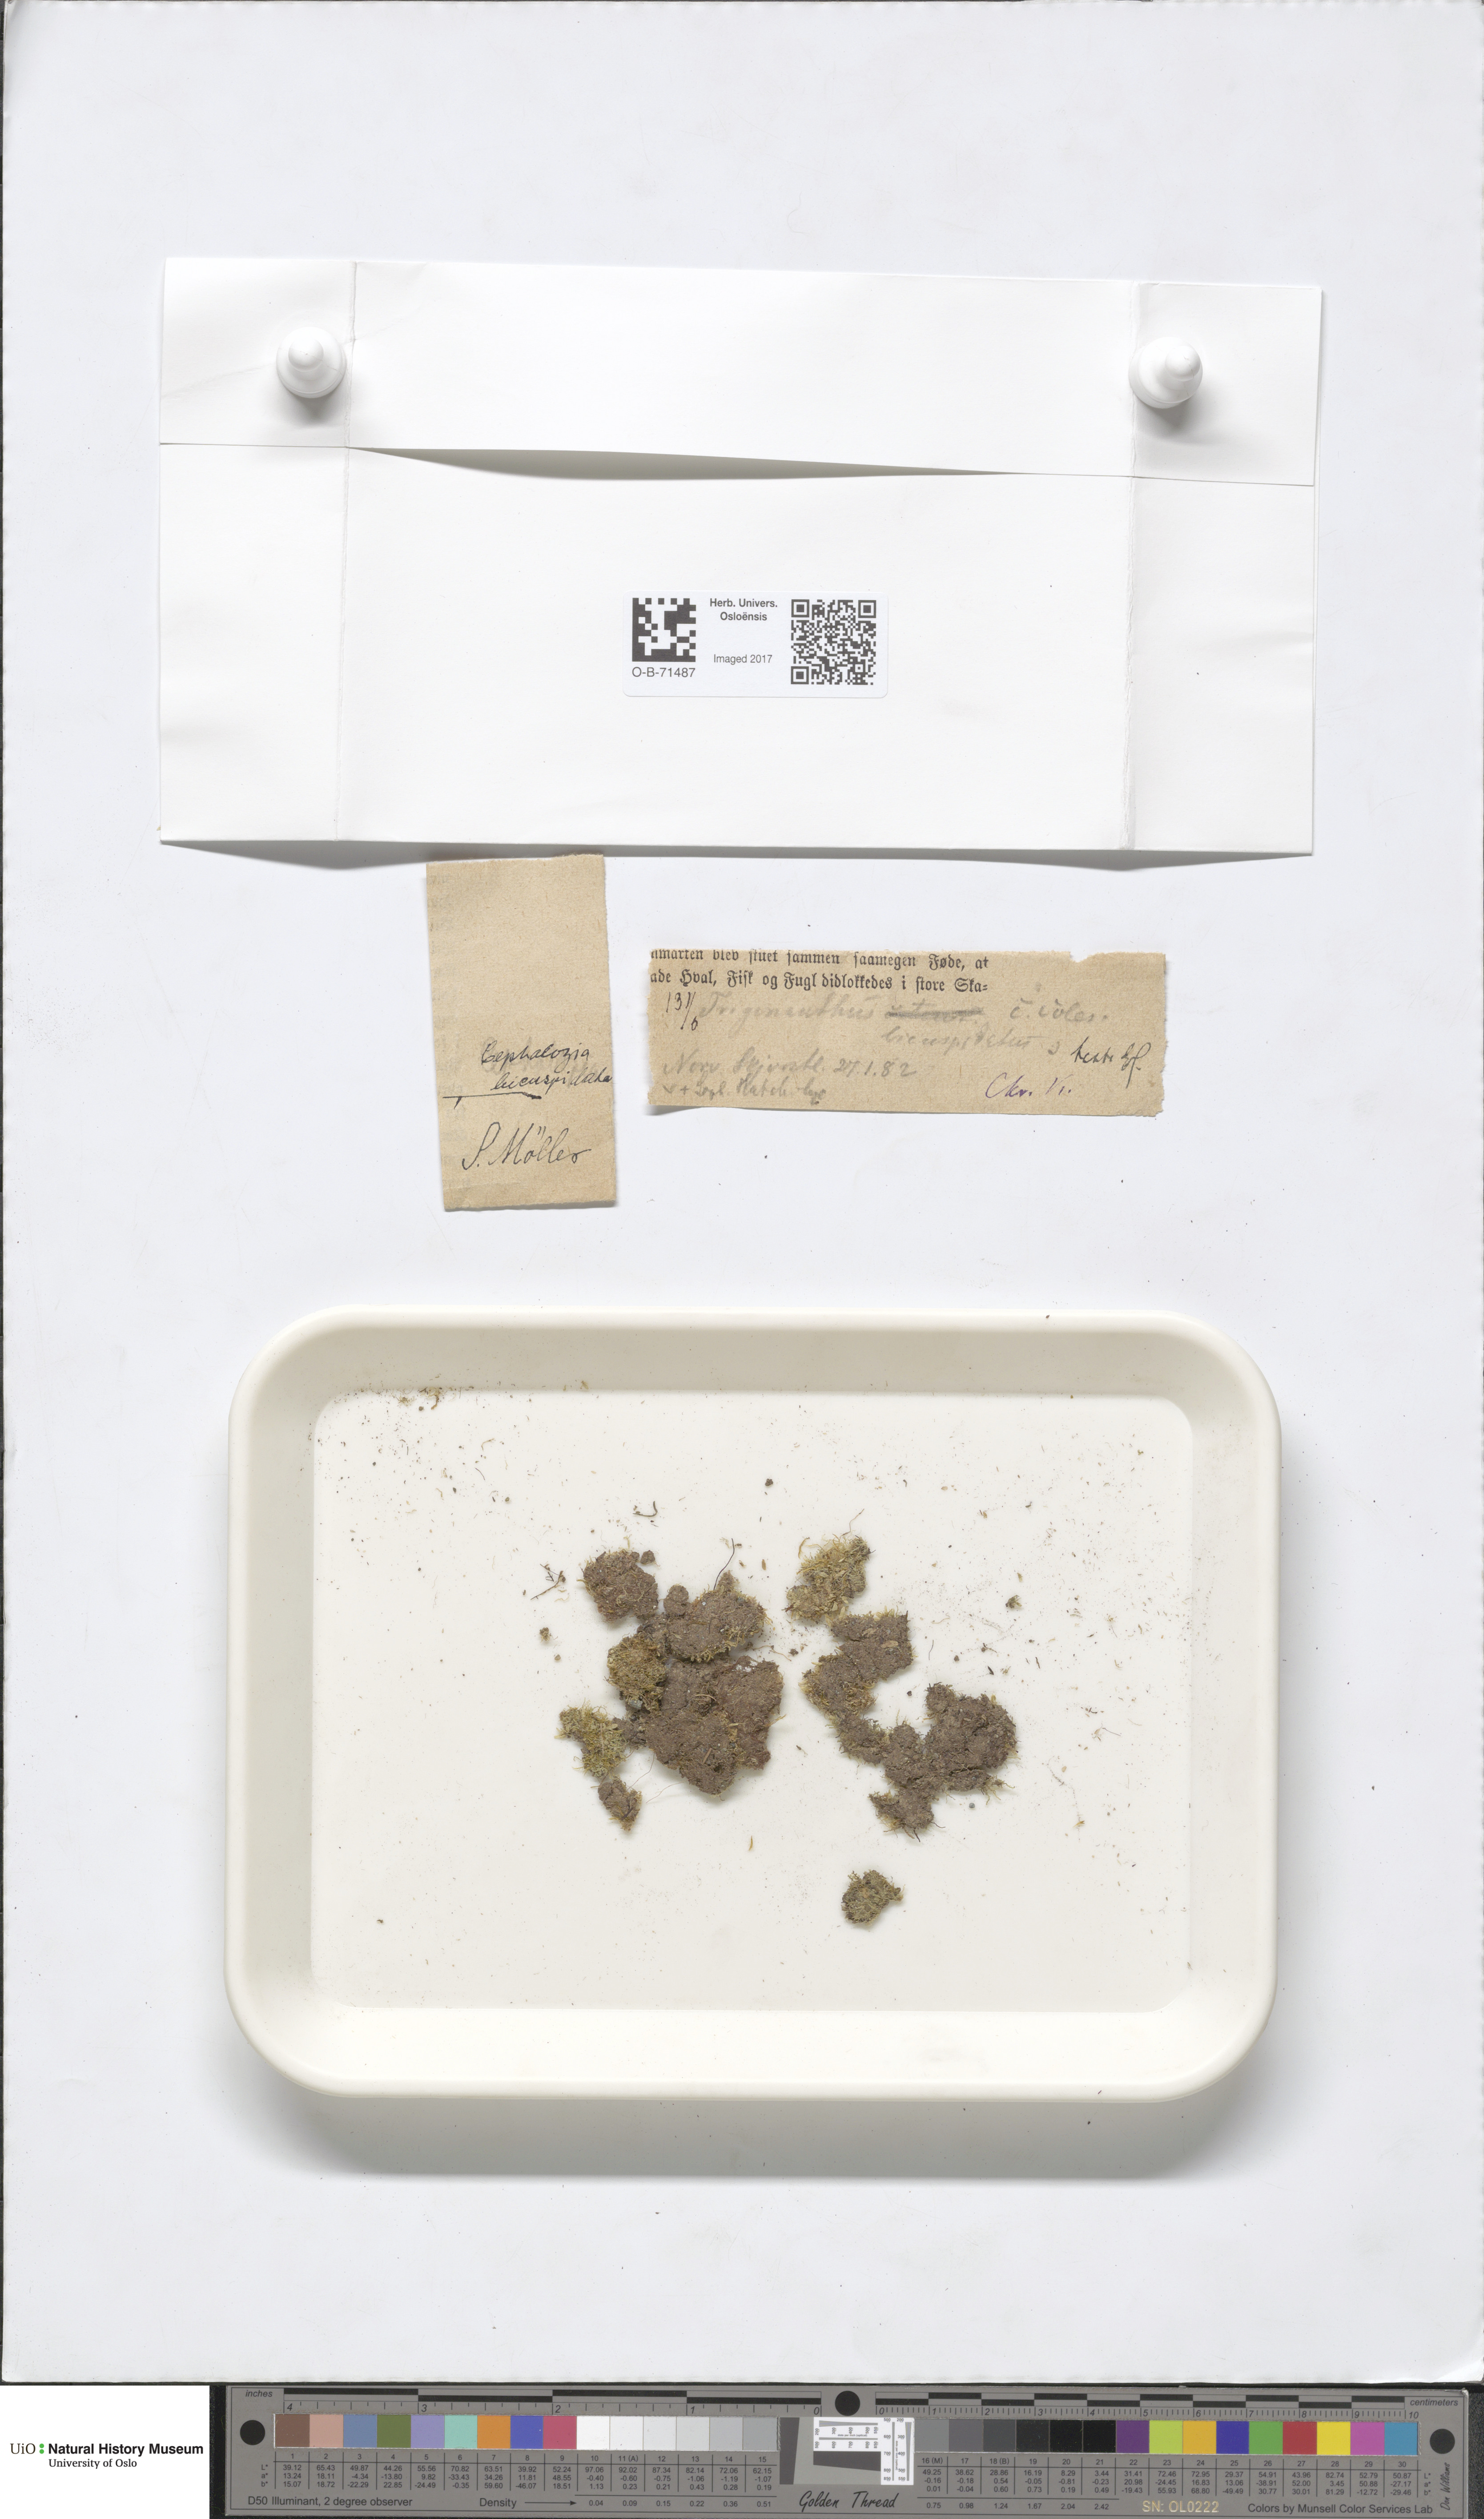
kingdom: Plantae
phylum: Marchantiophyta
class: Jungermanniopsida
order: Jungermanniales
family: Cephaloziaceae
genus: Cephalozia
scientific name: Cephalozia bicuspidata
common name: Two-horned pincerwort
